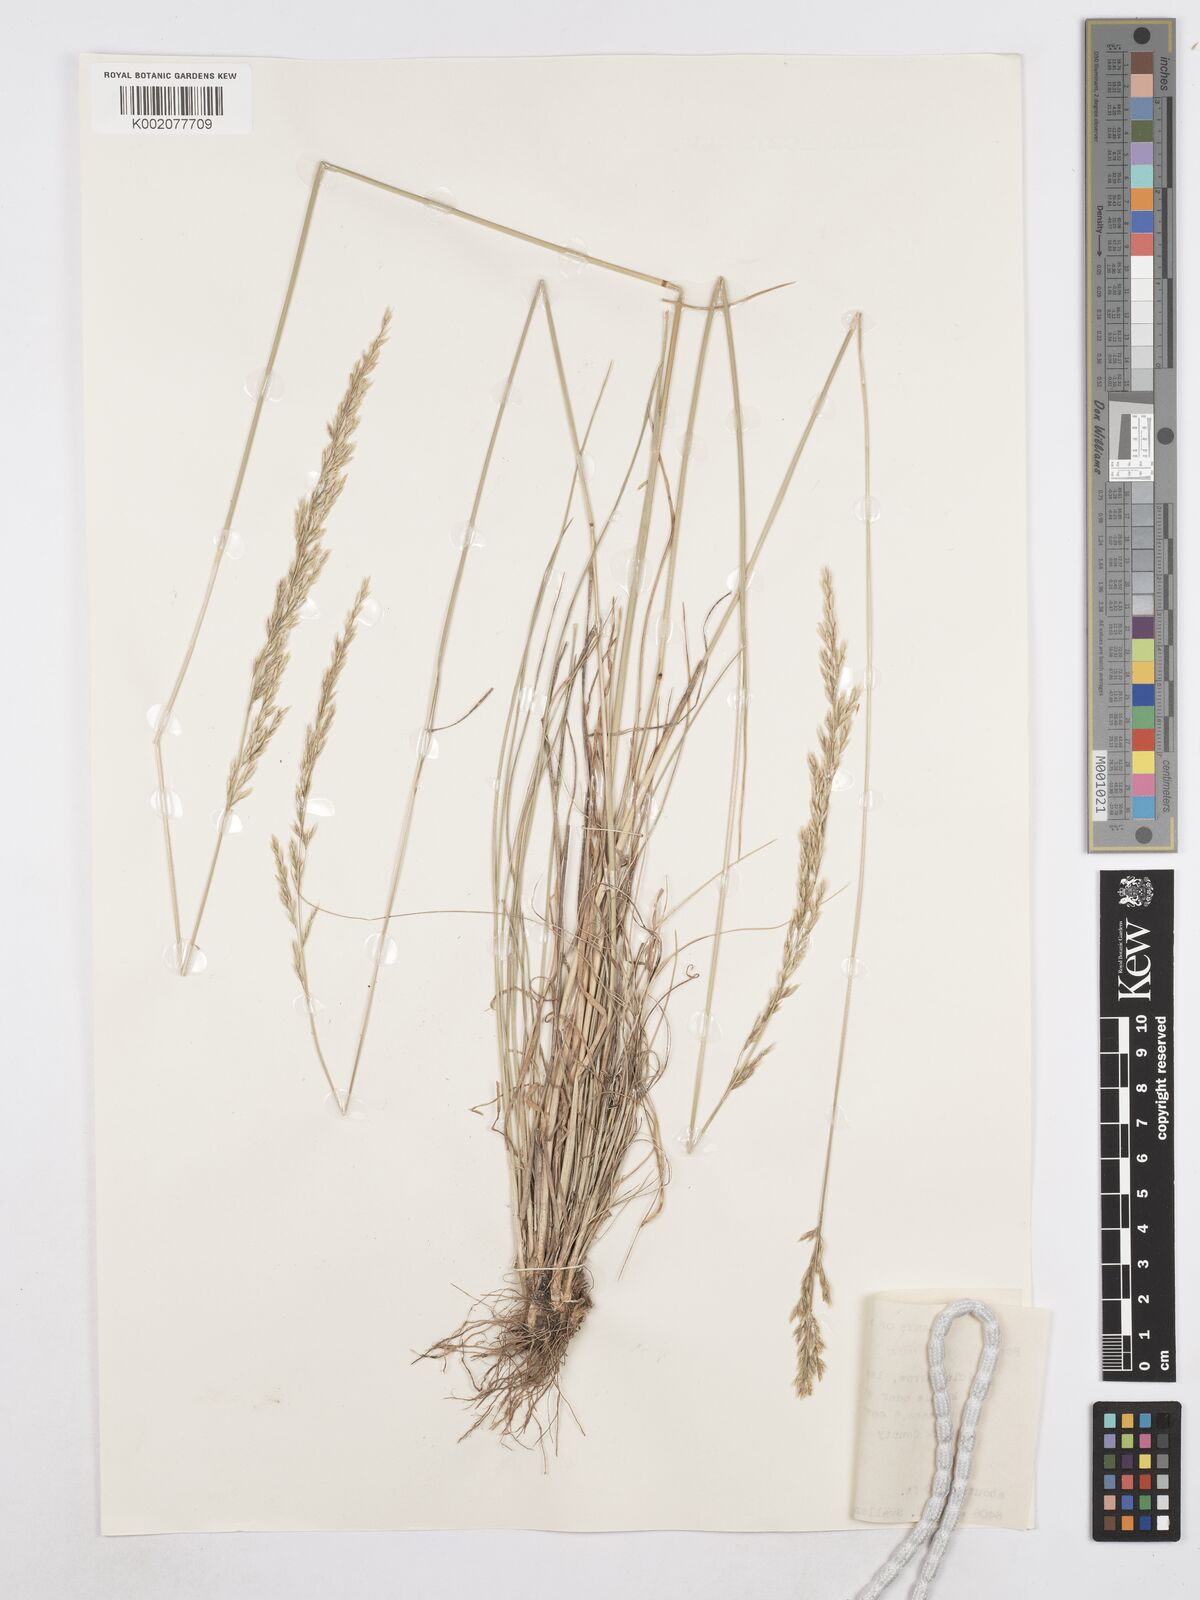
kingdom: Plantae
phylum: Tracheophyta
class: Liliopsida
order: Poales
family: Poaceae
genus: Poa
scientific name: Poa secunda
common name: Sandberg bluegrass
